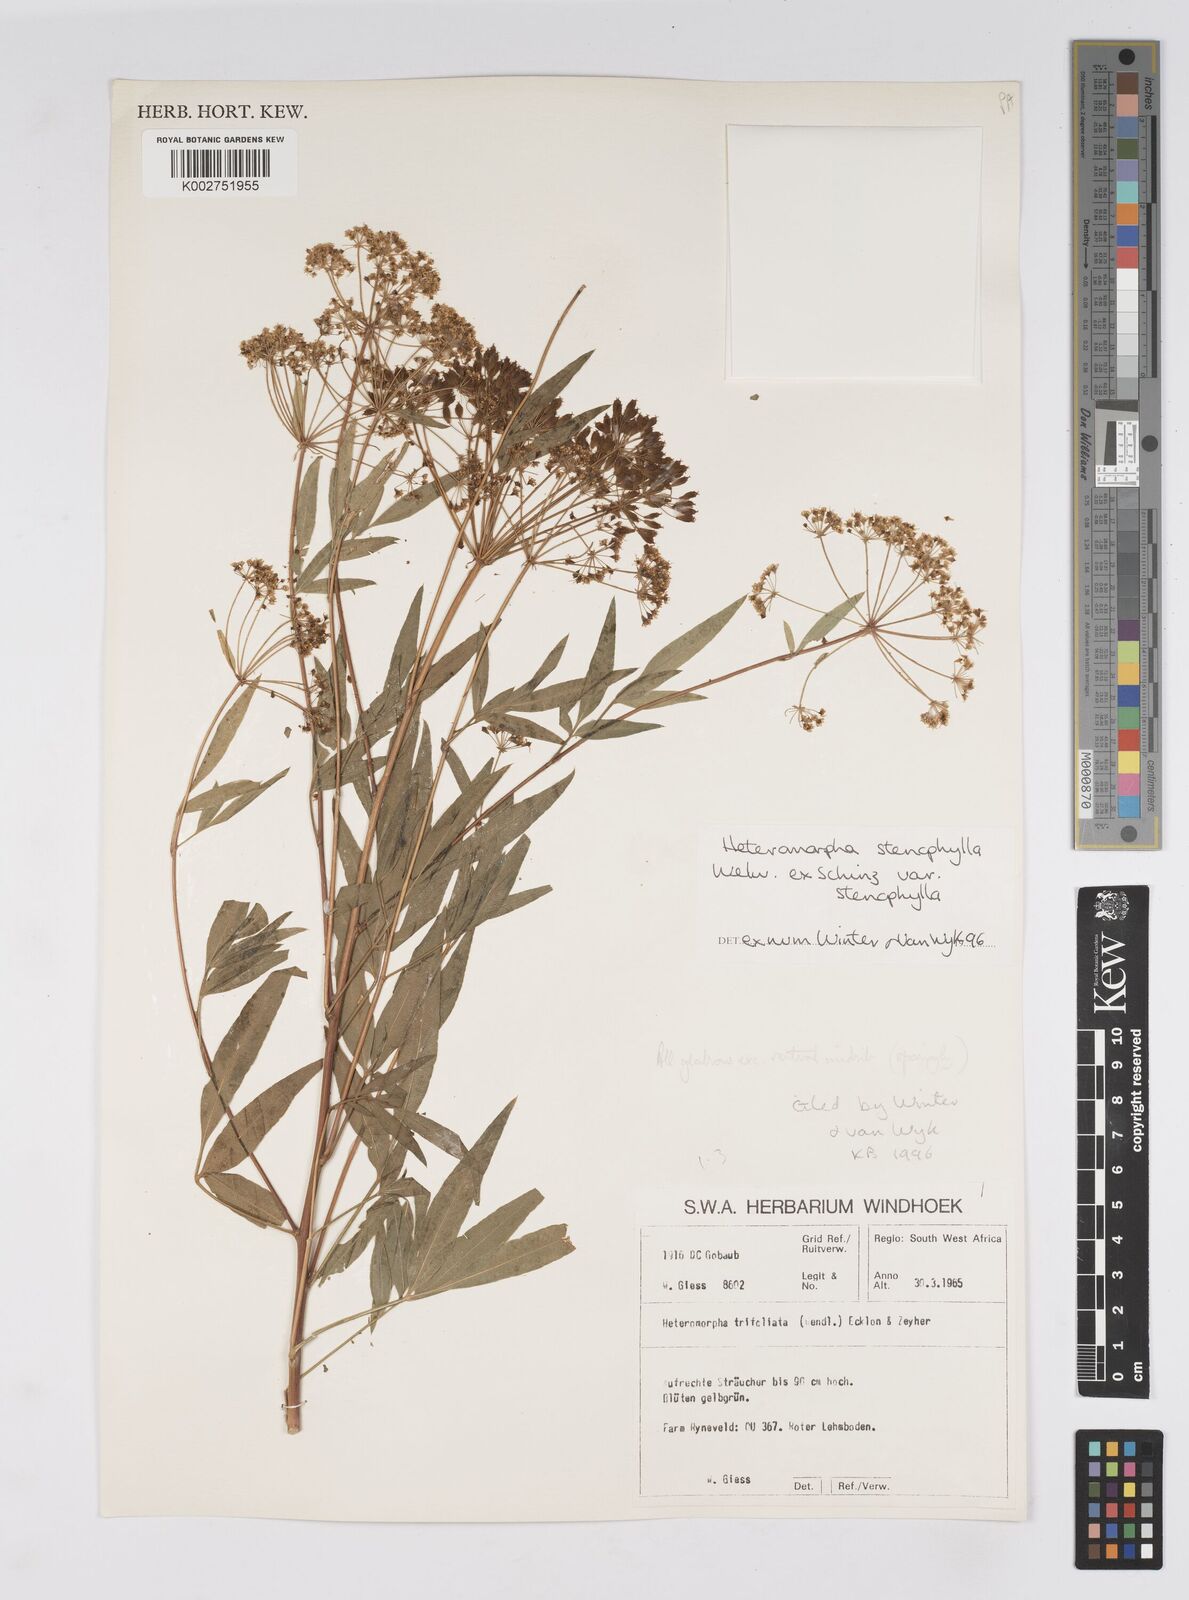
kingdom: Plantae
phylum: Tracheophyta
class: Magnoliopsida
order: Apiales
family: Apiaceae
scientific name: Apiaceae
